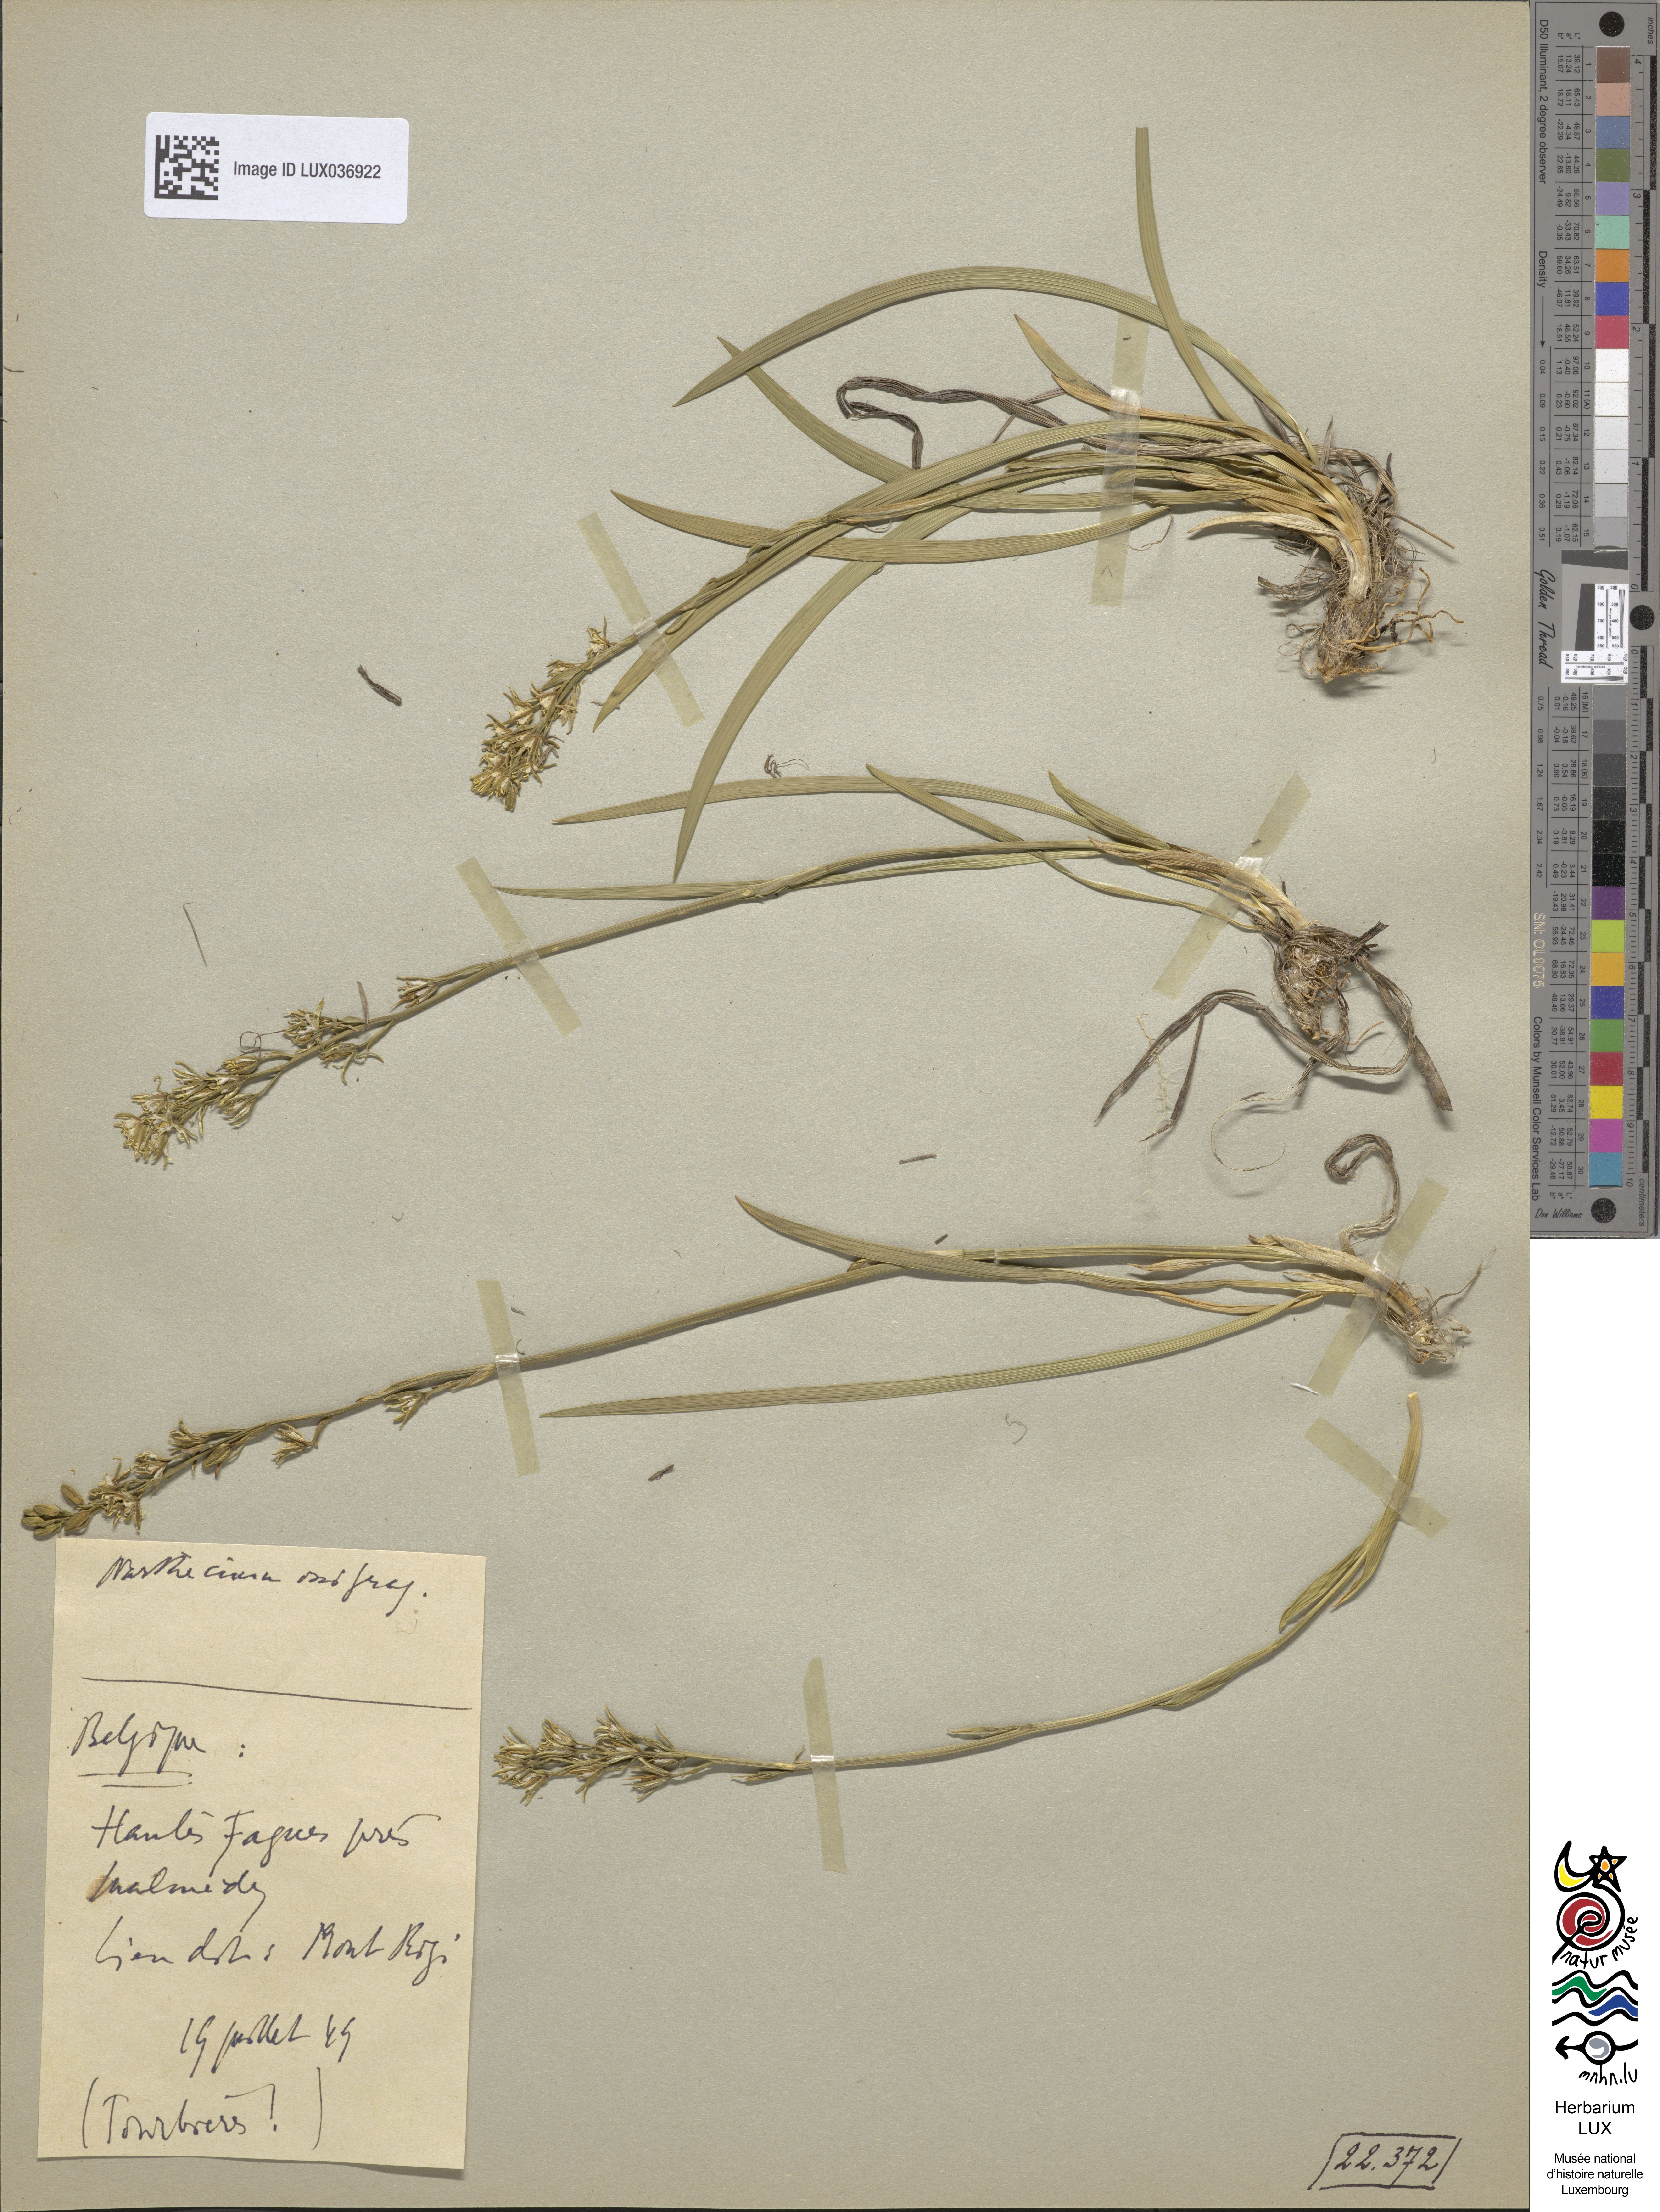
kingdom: Plantae
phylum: Tracheophyta
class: Liliopsida
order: Dioscoreales
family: Nartheciaceae
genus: Narthecium
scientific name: Narthecium ossifragum
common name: Bog asphodel
